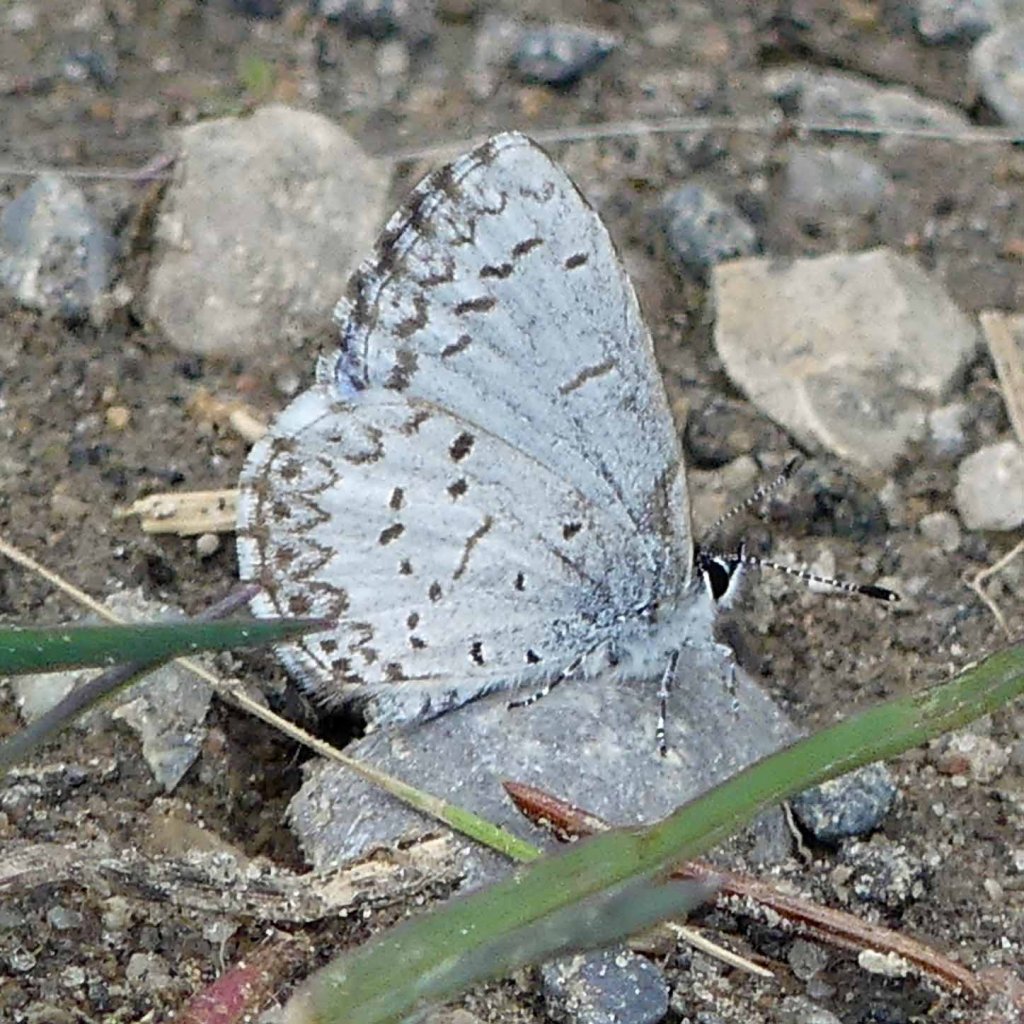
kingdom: Animalia
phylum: Arthropoda
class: Insecta
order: Lepidoptera
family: Lycaenidae
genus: Celastrina
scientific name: Celastrina lucia
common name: Northern Spring Azure
